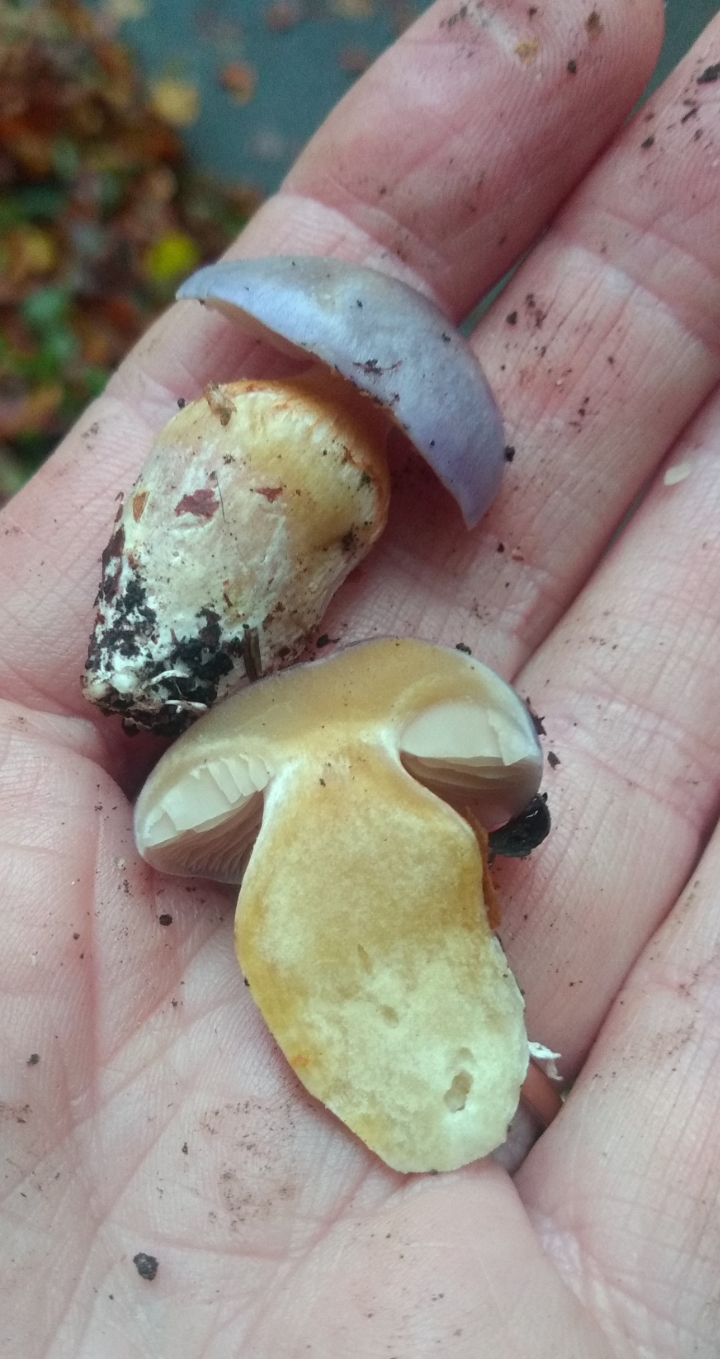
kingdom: Fungi
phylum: Basidiomycota
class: Agaricomycetes
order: Agaricales
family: Cortinariaceae
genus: Thaxterogaster
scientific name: Thaxterogaster croceocoeruleus
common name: blågullig slørhat
